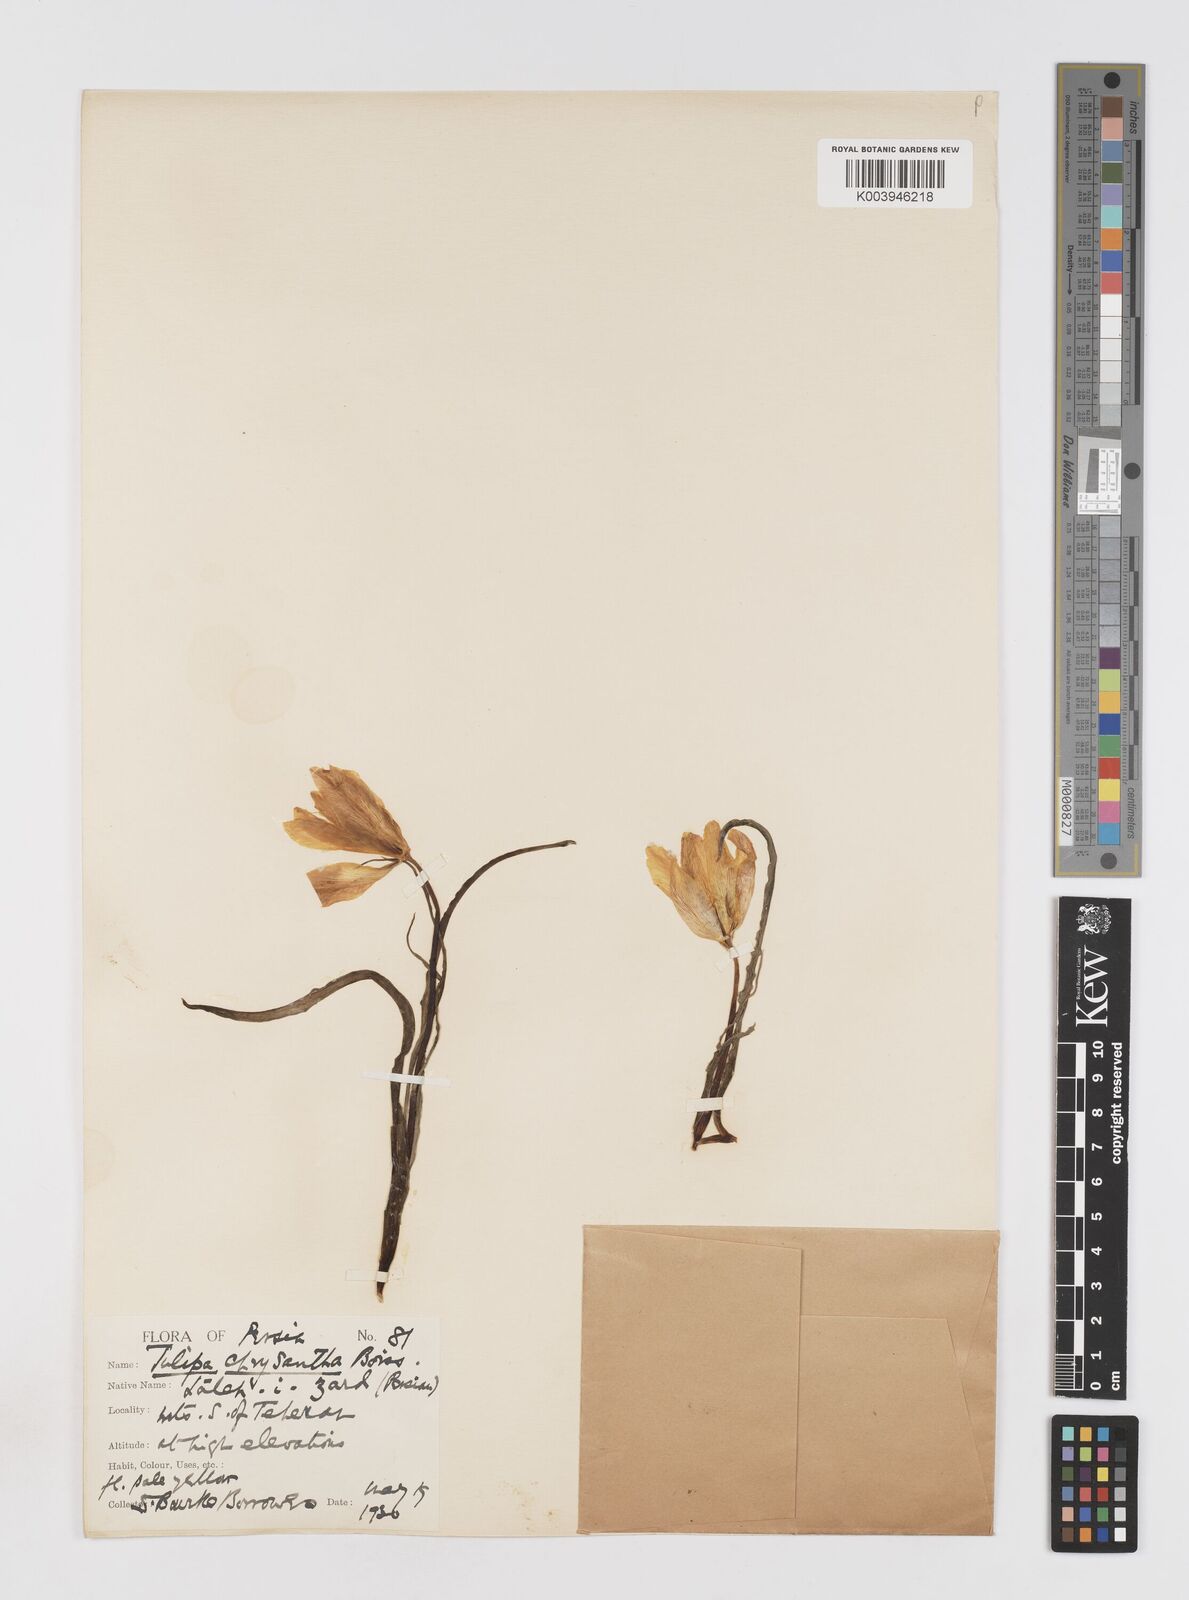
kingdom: Plantae
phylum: Tracheophyta
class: Liliopsida
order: Liliales
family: Liliaceae
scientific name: Liliaceae
